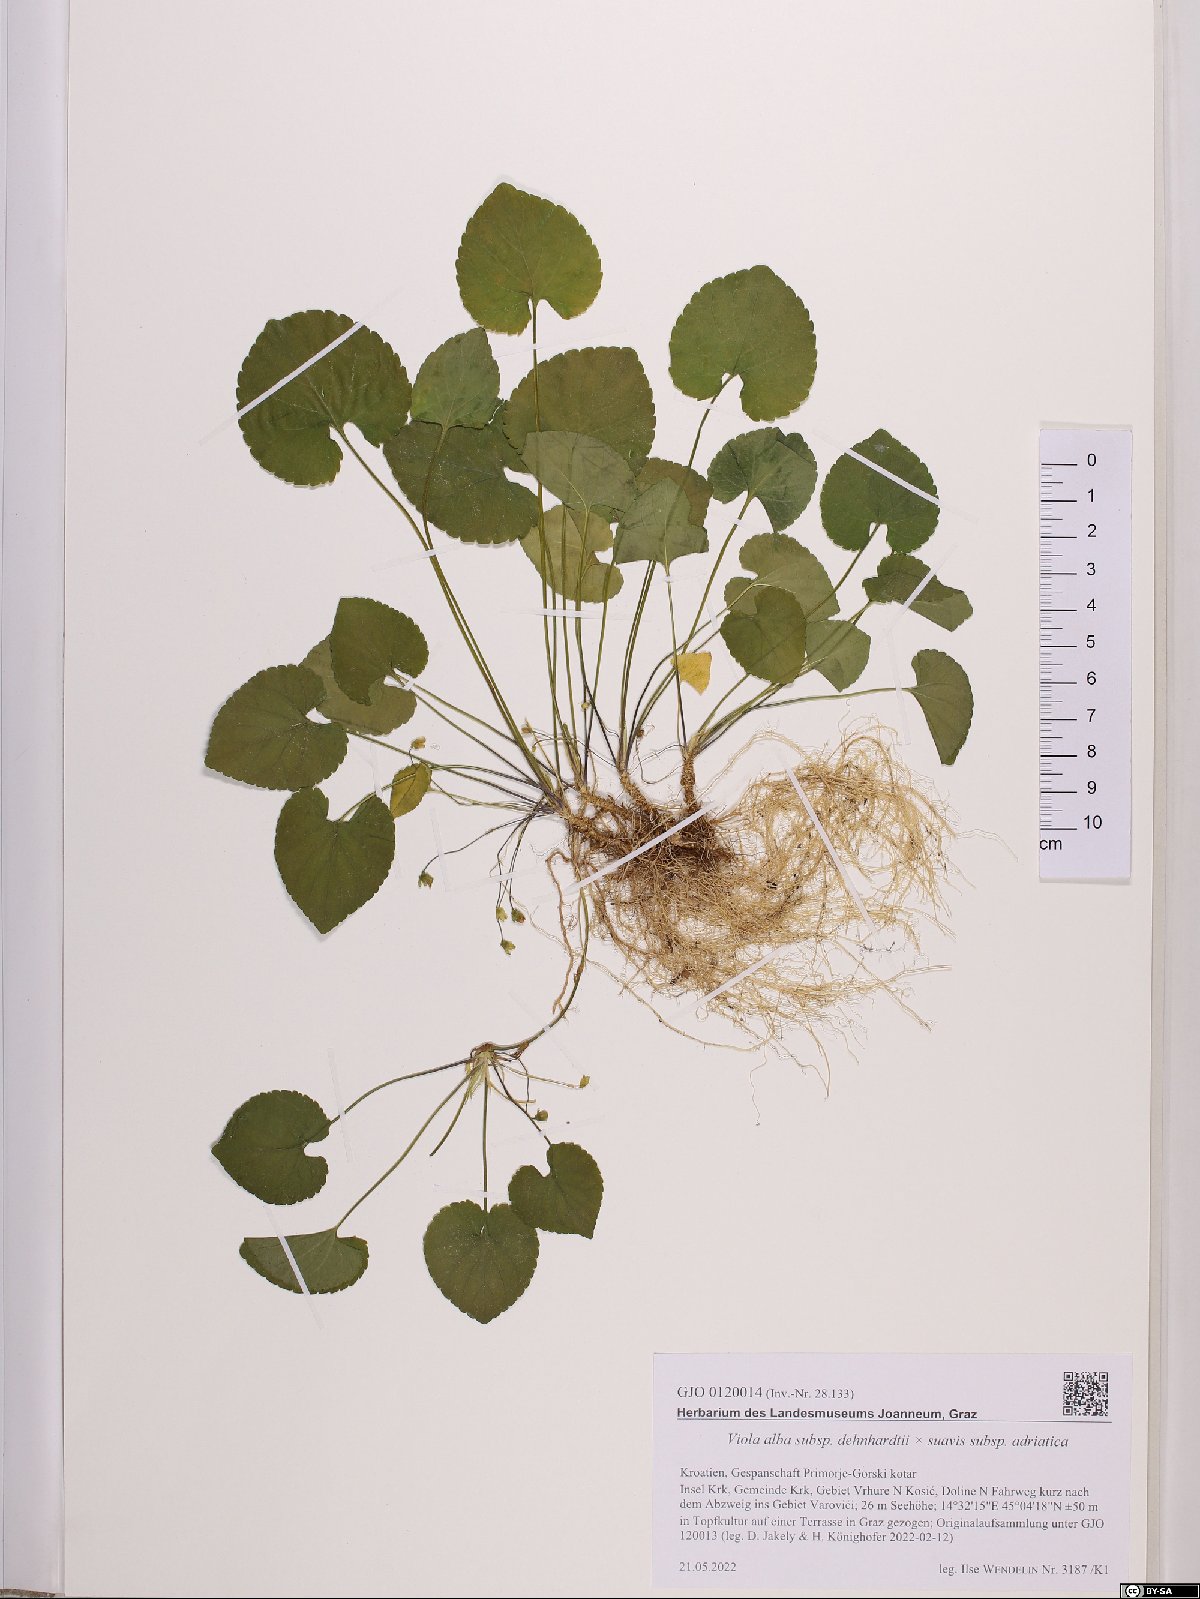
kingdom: Plantae
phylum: Tracheophyta
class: Magnoliopsida
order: Malpighiales
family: Violaceae
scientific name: Violaceae
